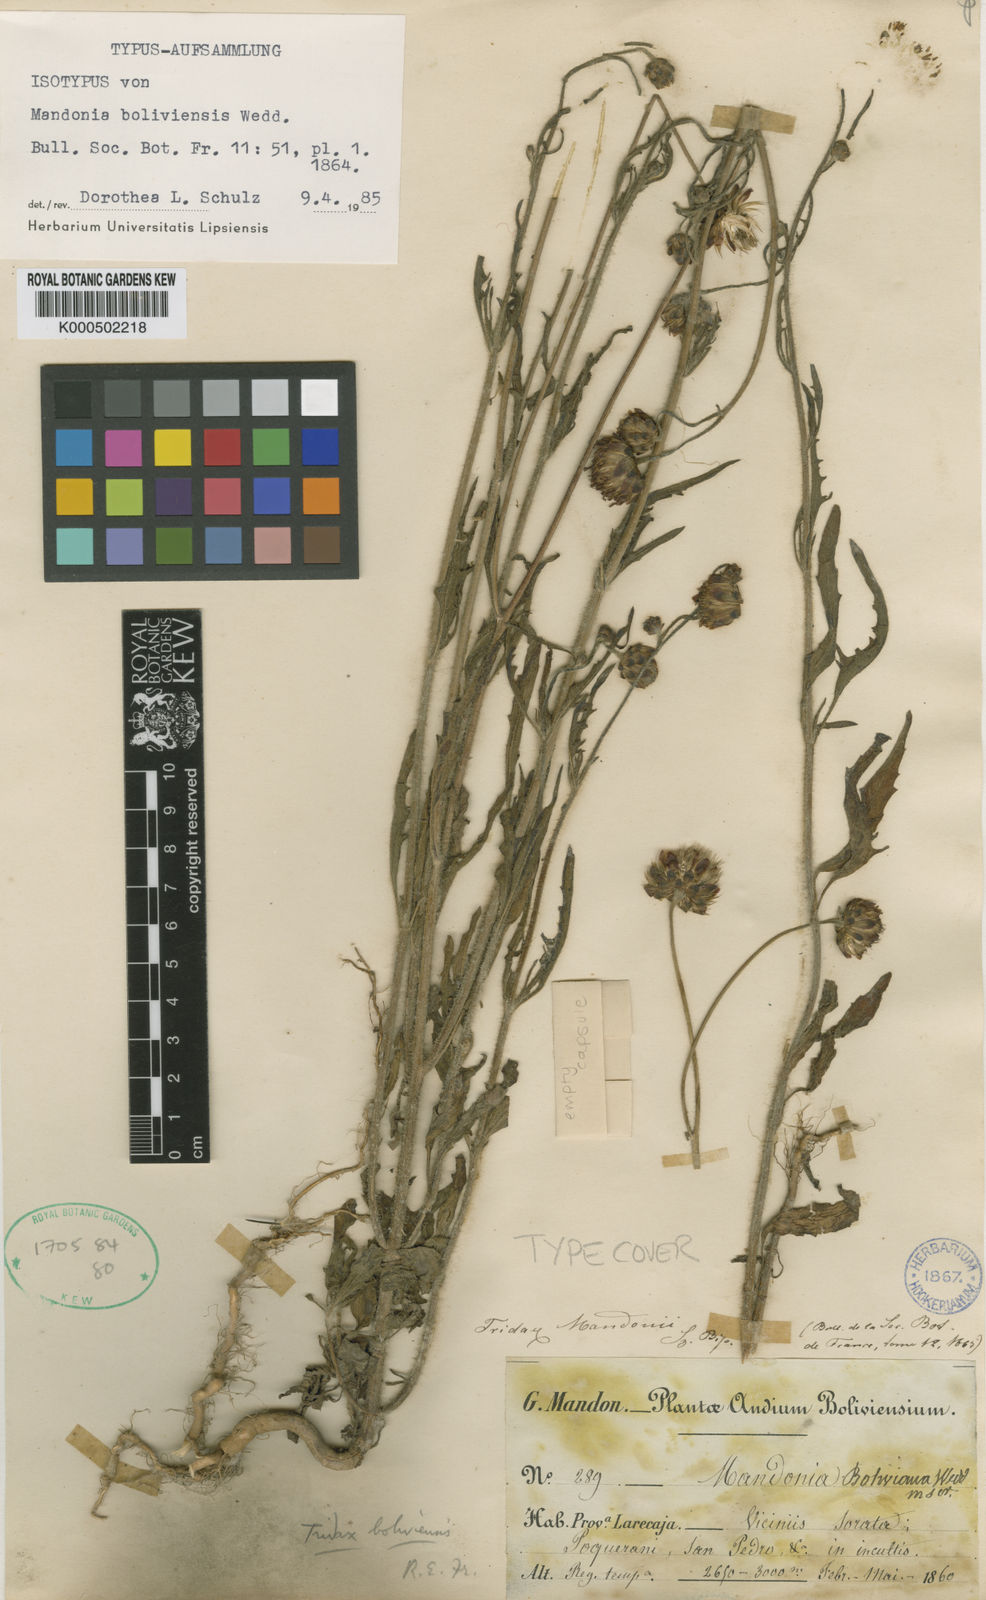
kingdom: Plantae
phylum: Tracheophyta
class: Magnoliopsida
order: Asterales
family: Asteraceae
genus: Tridax
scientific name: Tridax boliviensis
